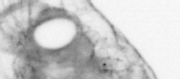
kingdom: Animalia
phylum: Arthropoda
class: Copepoda
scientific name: Copepoda
